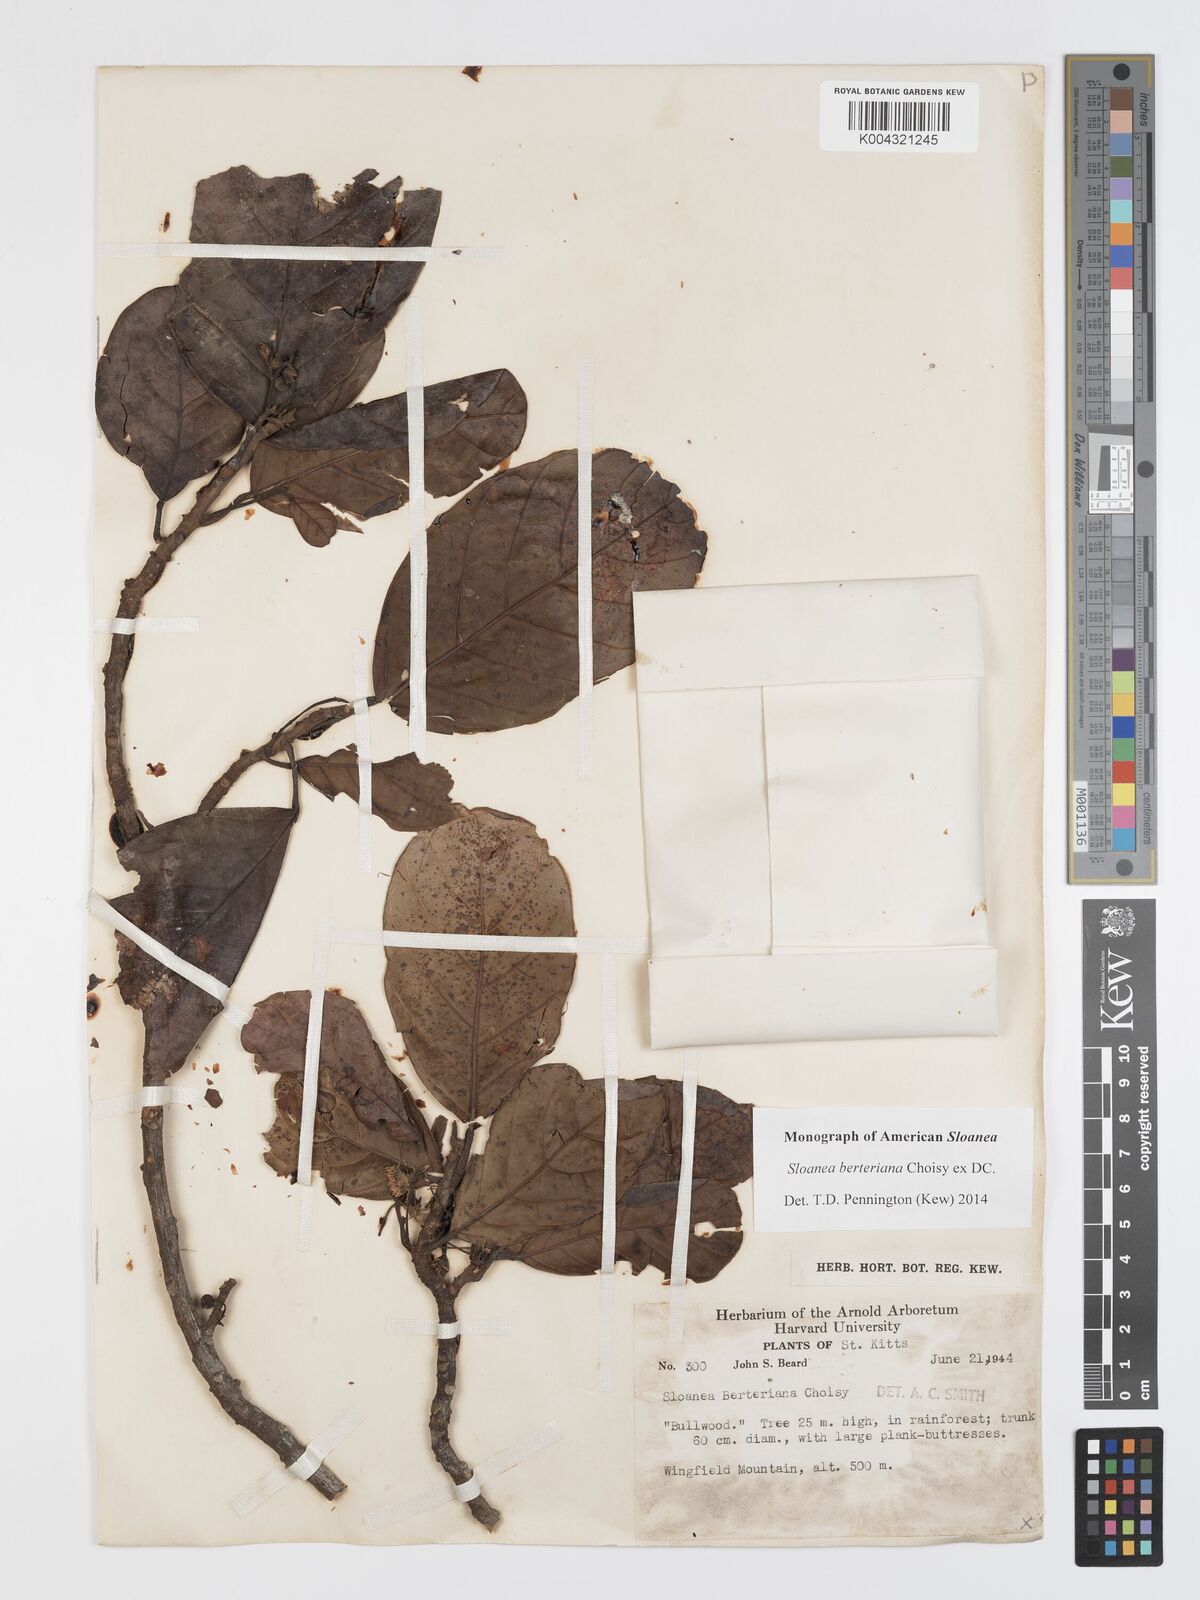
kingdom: Plantae
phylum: Tracheophyta
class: Magnoliopsida
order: Oxalidales
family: Elaeocarpaceae
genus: Sloanea
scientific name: Sloanea berteroana
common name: Bullwood
